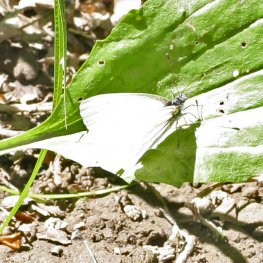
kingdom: Animalia
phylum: Arthropoda
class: Insecta
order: Lepidoptera
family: Pieridae
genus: Pieris
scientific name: Pieris oleracea
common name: Mustard White
